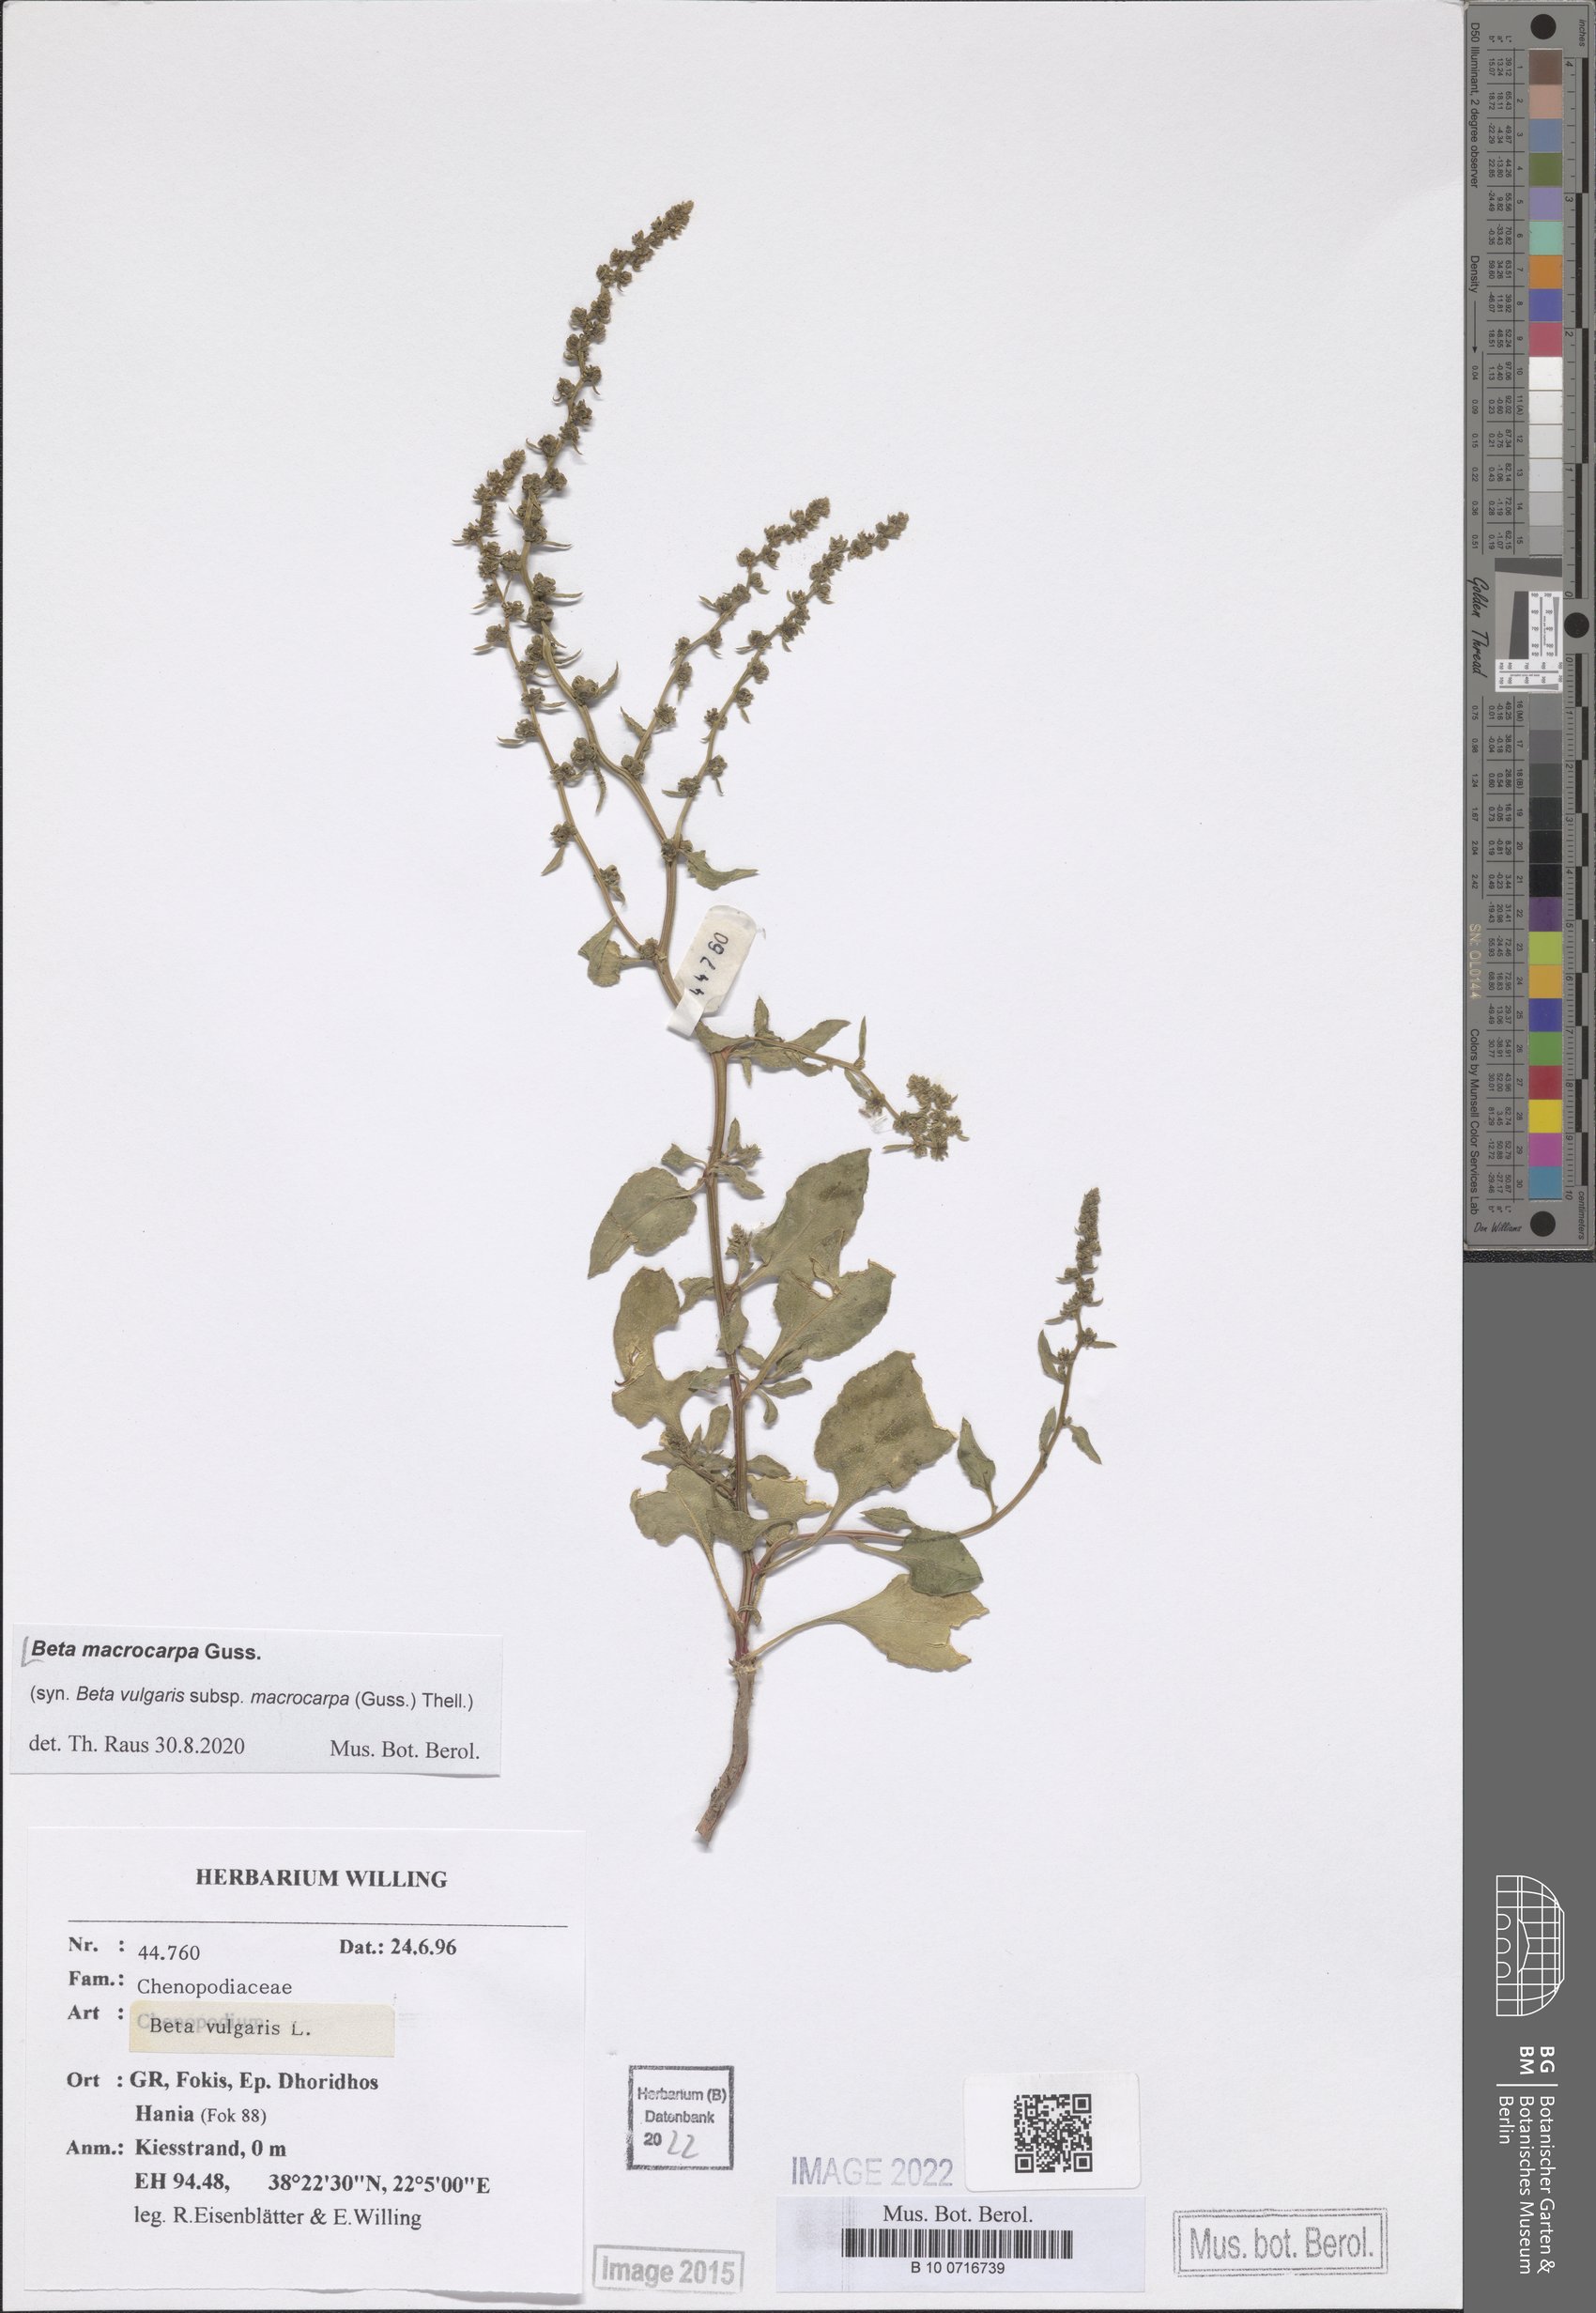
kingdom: Plantae
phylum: Tracheophyta
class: Magnoliopsida
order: Caryophyllales
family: Amaranthaceae
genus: Beta
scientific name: Beta macrocarpa
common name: Beet
